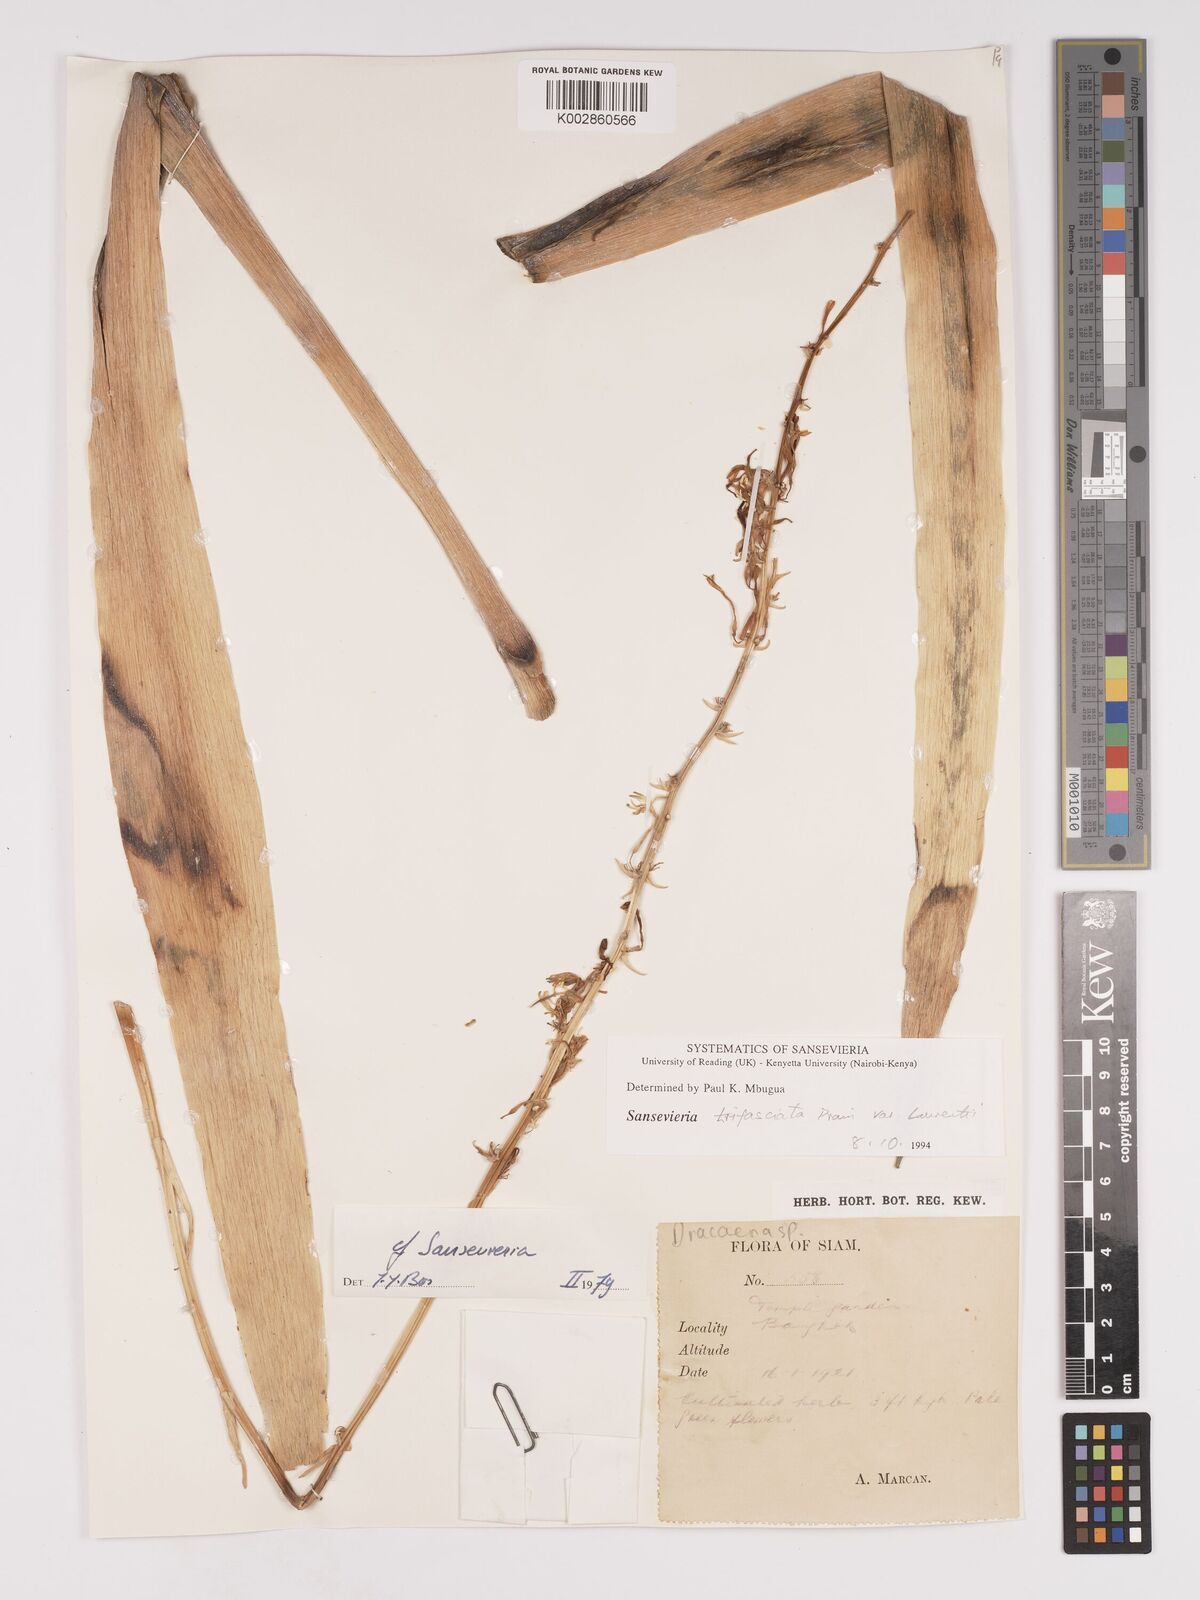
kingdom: Plantae
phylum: Tracheophyta
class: Liliopsida
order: Asparagales
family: Asparagaceae
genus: Dracaena
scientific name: Dracaena
